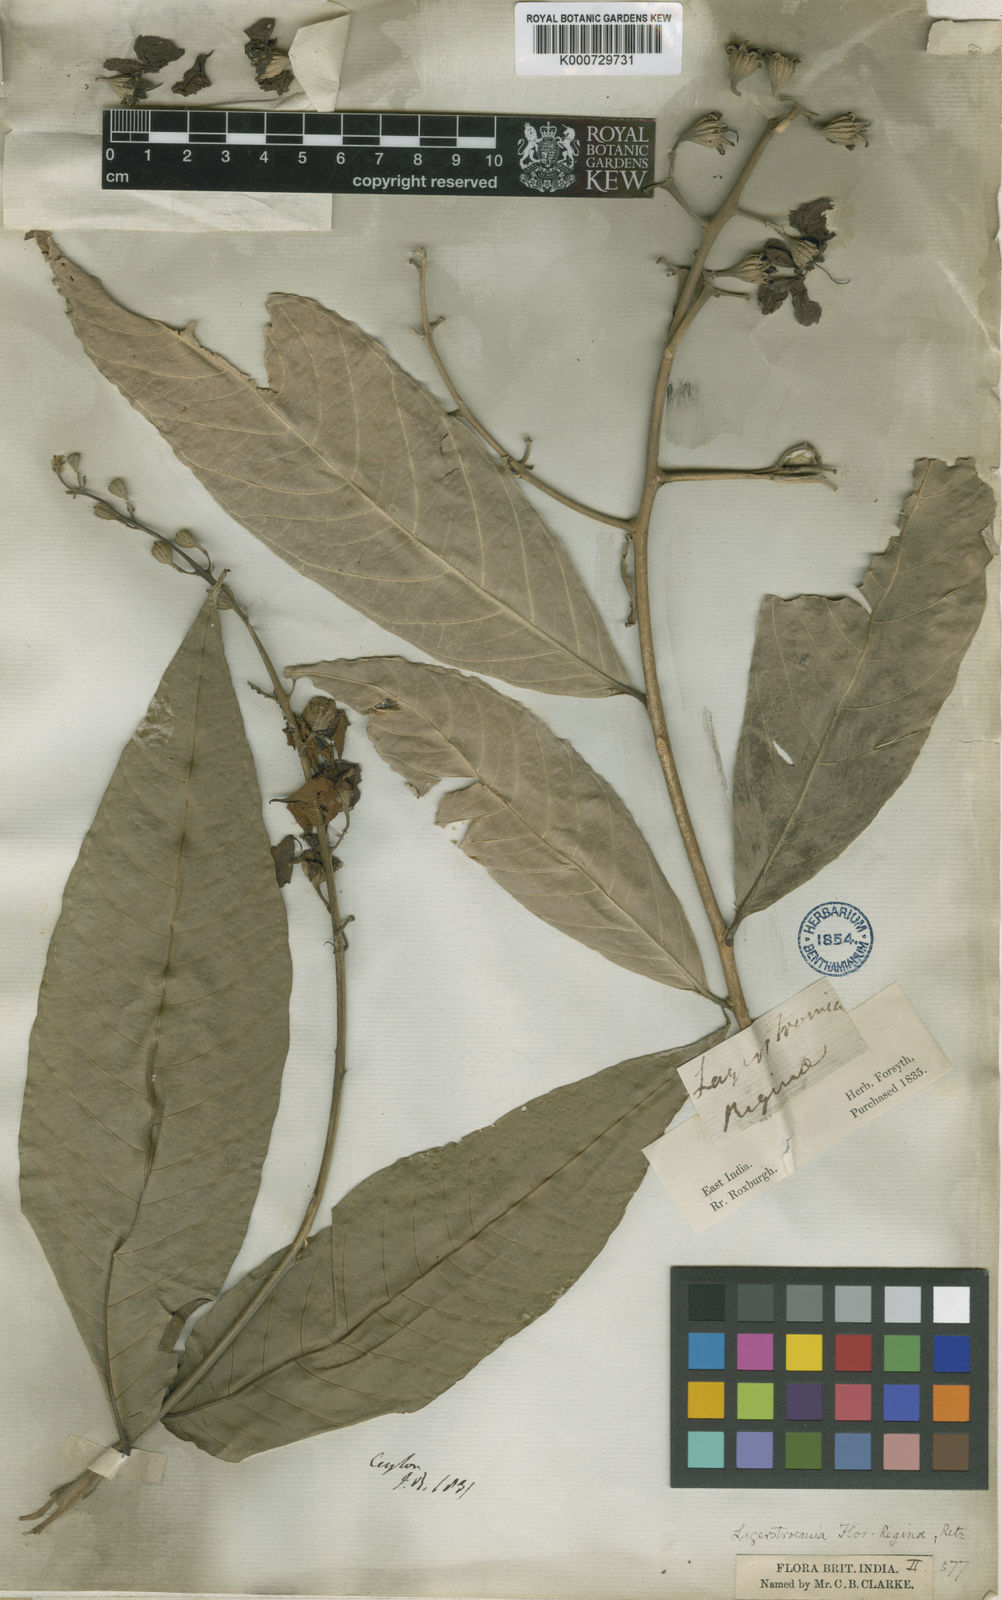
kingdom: Plantae
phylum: Tracheophyta
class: Magnoliopsida
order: Myrtales
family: Lythraceae
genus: Lagerstroemia
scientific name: Lagerstroemia speciosa
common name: Queen's crape-myrtle
